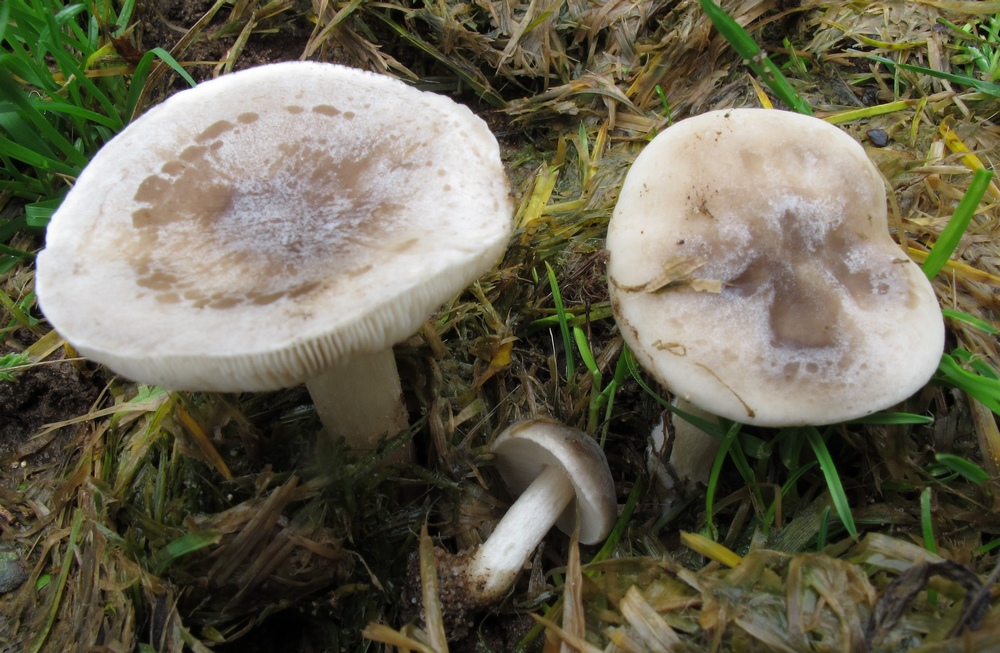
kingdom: Fungi
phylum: Basidiomycota
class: Agaricomycetes
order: Agaricales
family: Tricholomataceae
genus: Melanoleuca
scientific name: Melanoleuca exscissa
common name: gusten munkehat
